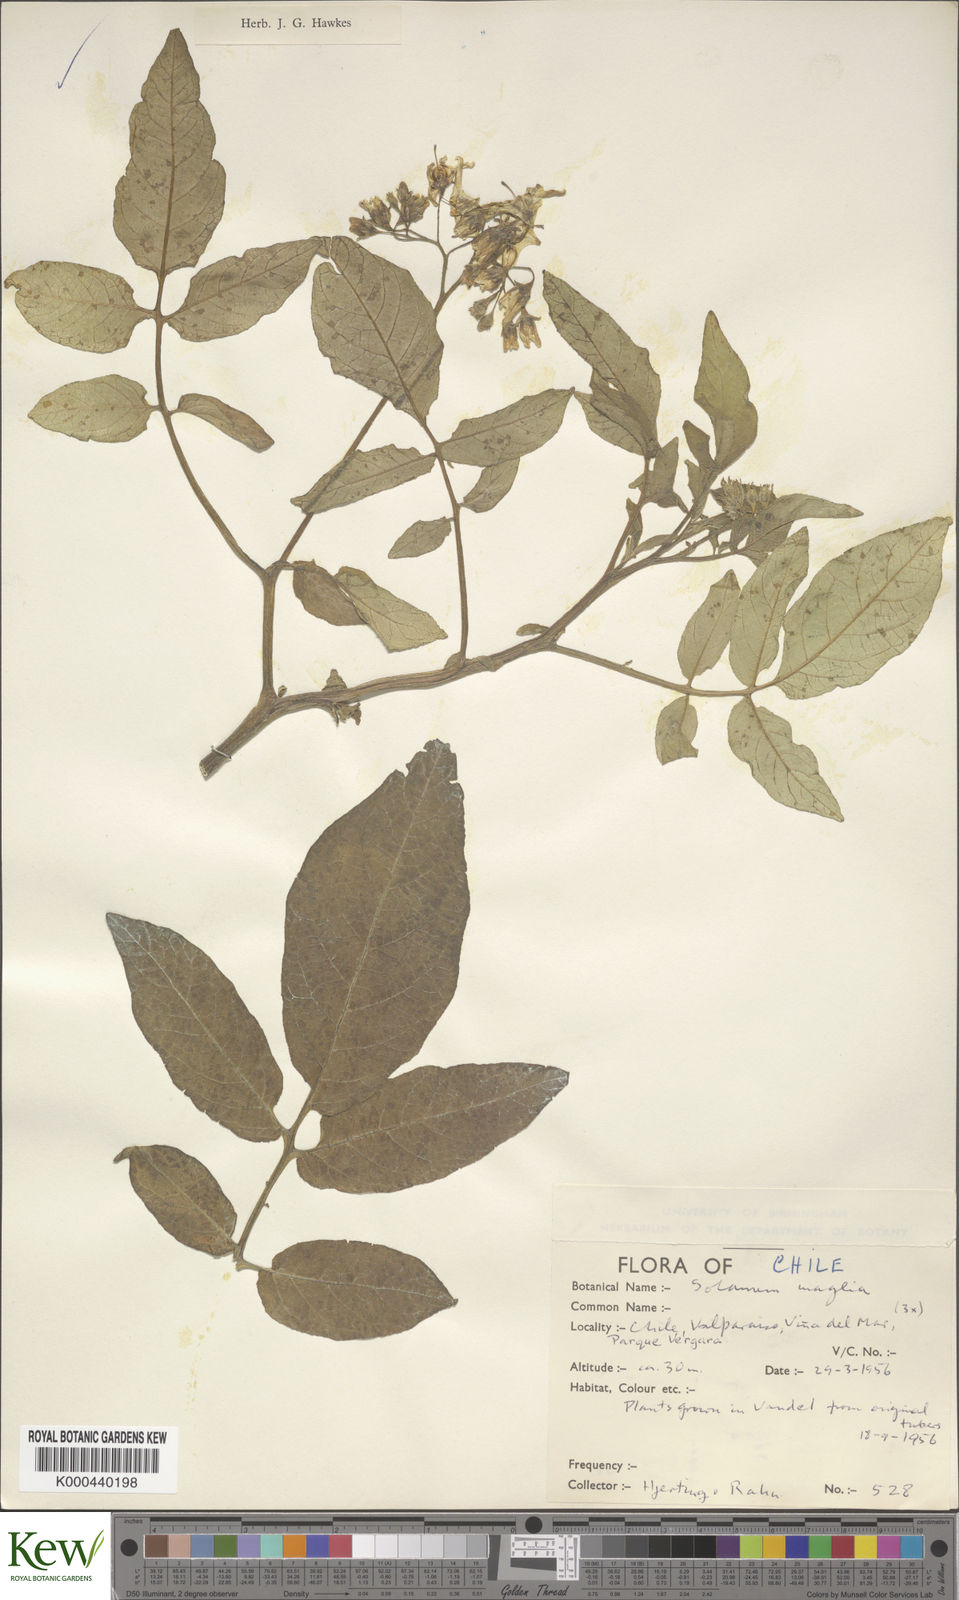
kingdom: Plantae
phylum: Tracheophyta
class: Magnoliopsida
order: Solanales
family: Solanaceae
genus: Solanum
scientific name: Solanum maglia
